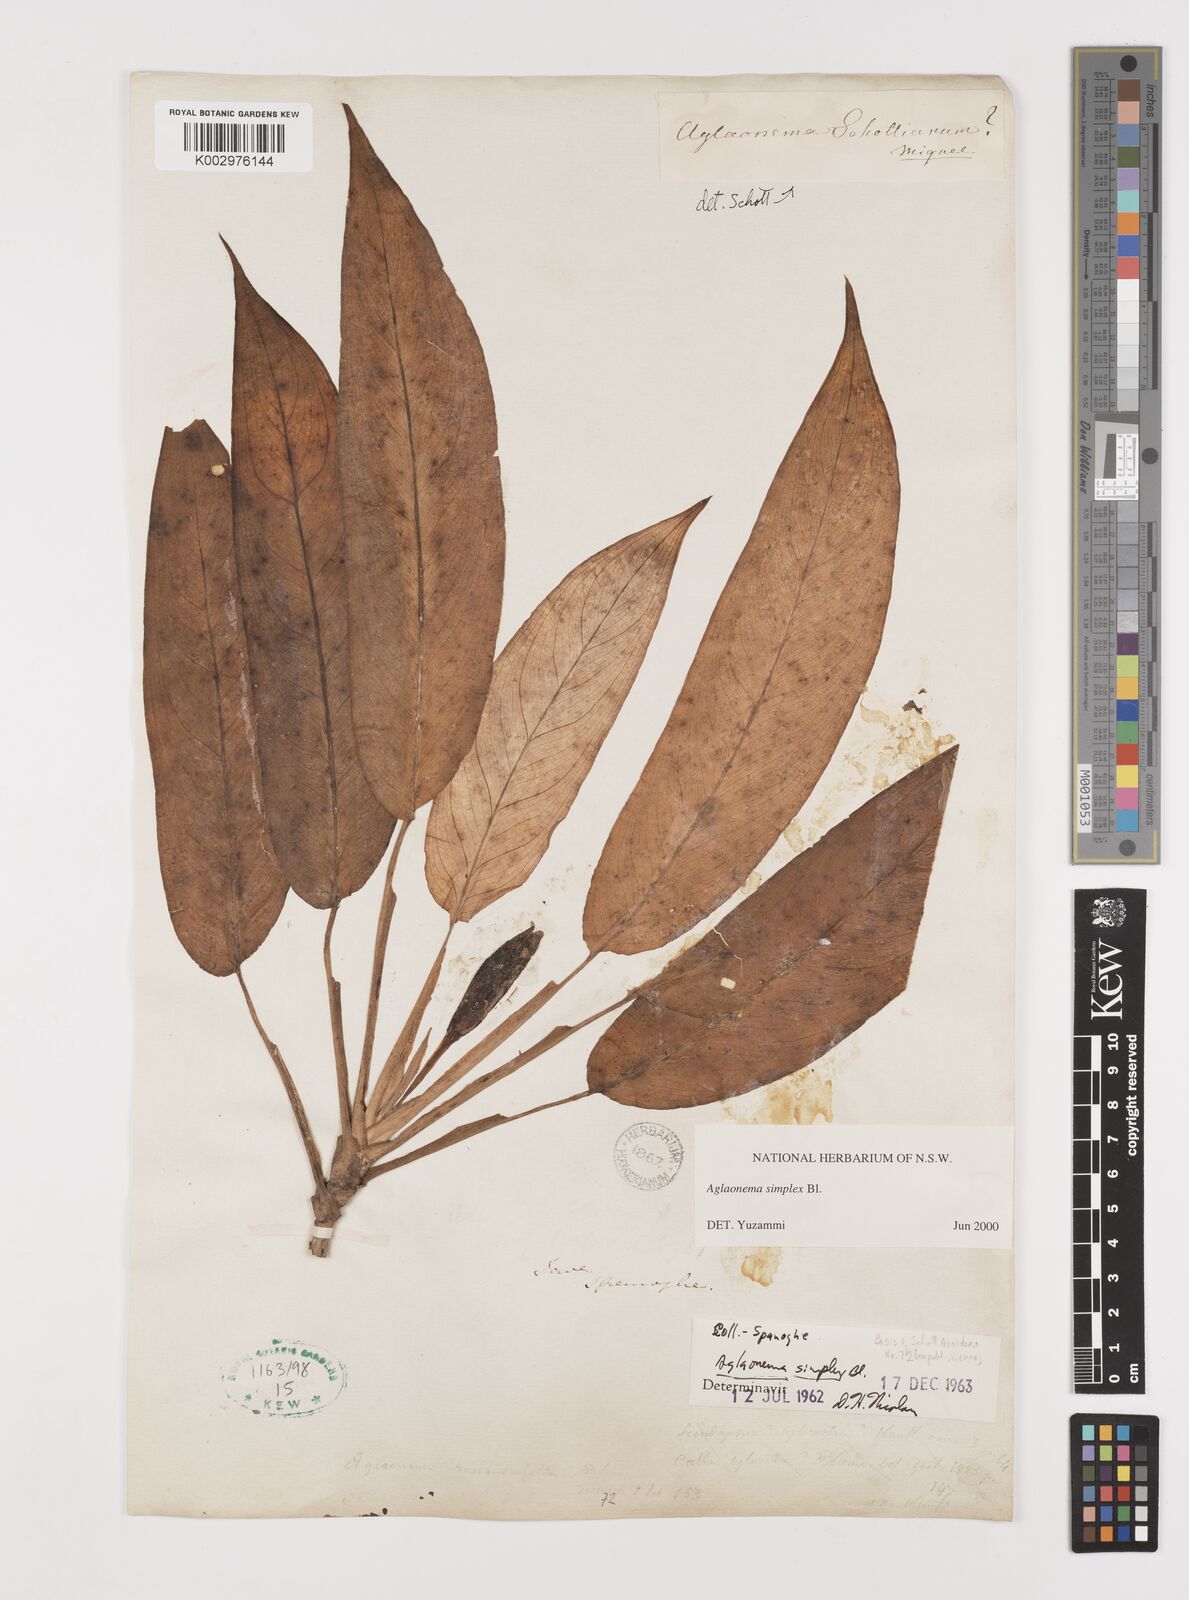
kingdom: Plantae
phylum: Tracheophyta
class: Liliopsida
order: Alismatales
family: Araceae
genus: Aglaonema
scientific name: Aglaonema simplex
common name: Malayan-sword
